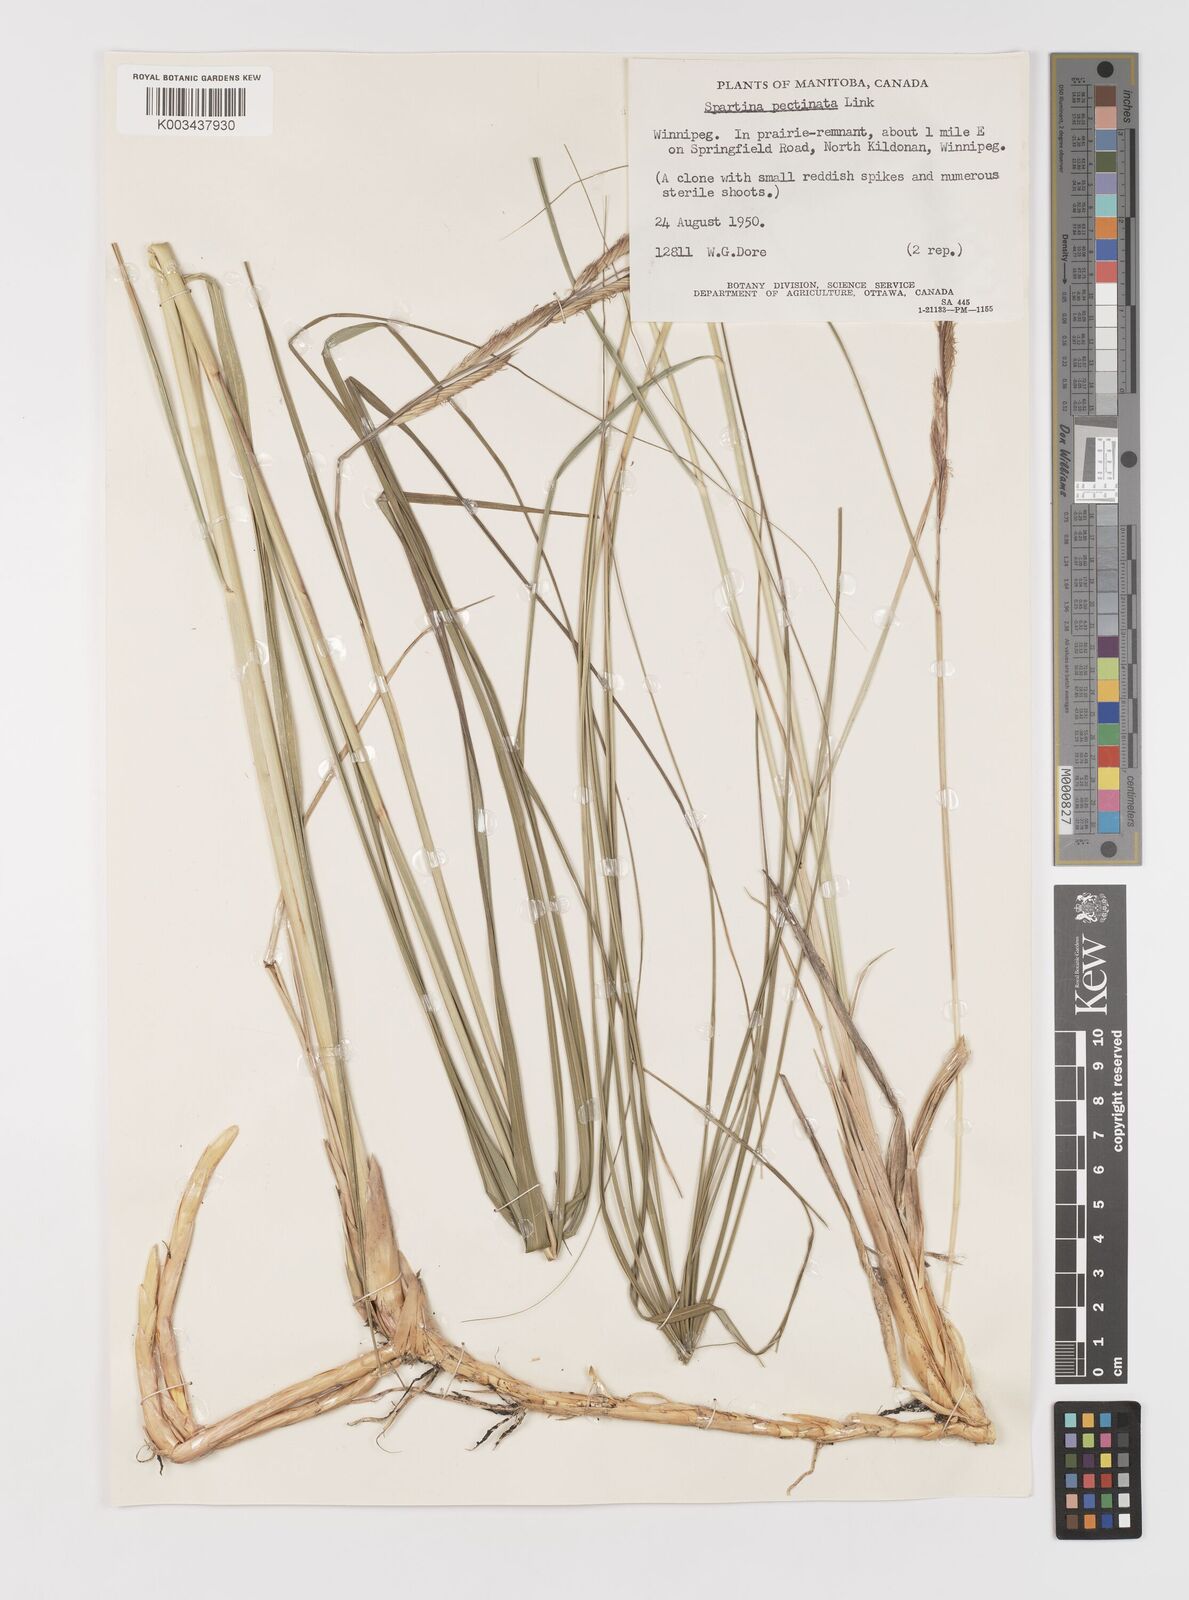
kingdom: Plantae
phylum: Tracheophyta
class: Liliopsida
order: Poales
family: Poaceae
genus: Sporobolus
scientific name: Sporobolus michauxianus
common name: Freshwater cordgrass
